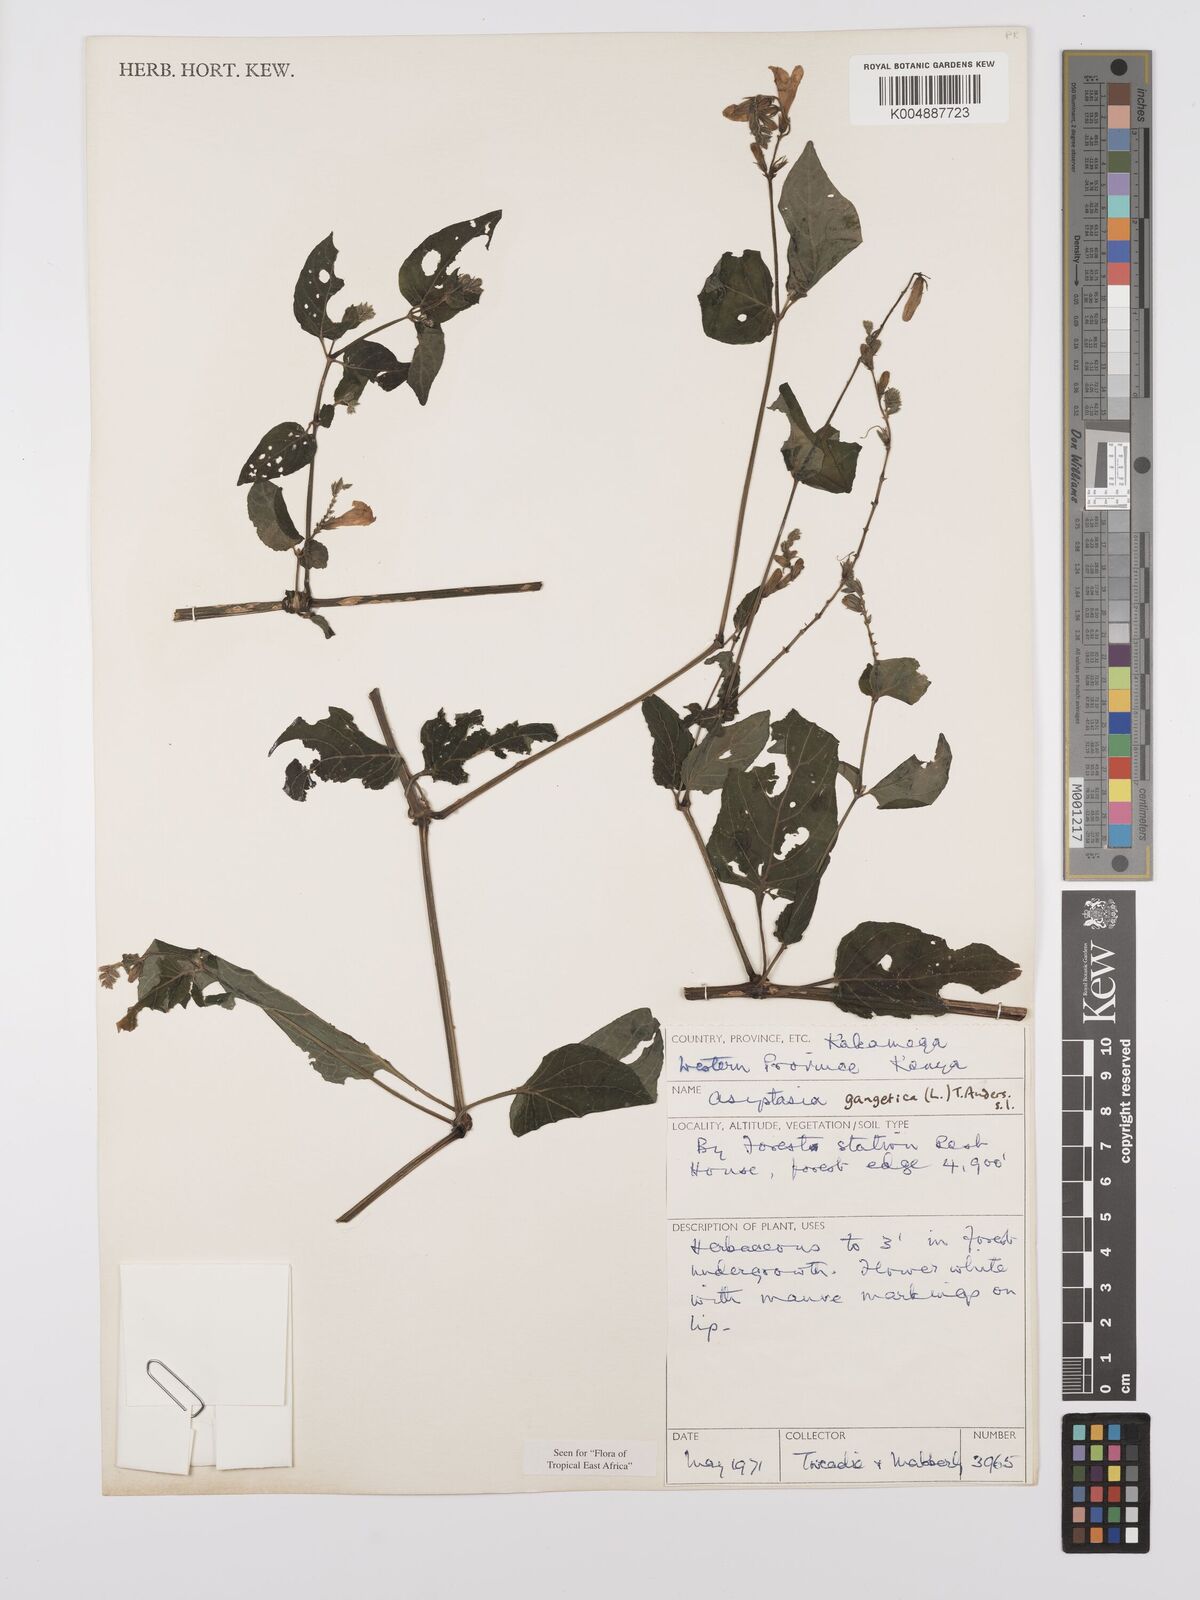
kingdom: Plantae
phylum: Tracheophyta
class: Magnoliopsida
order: Lamiales
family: Acanthaceae
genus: Asystasia
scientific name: Asystasia gangetica
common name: Chinese violet
